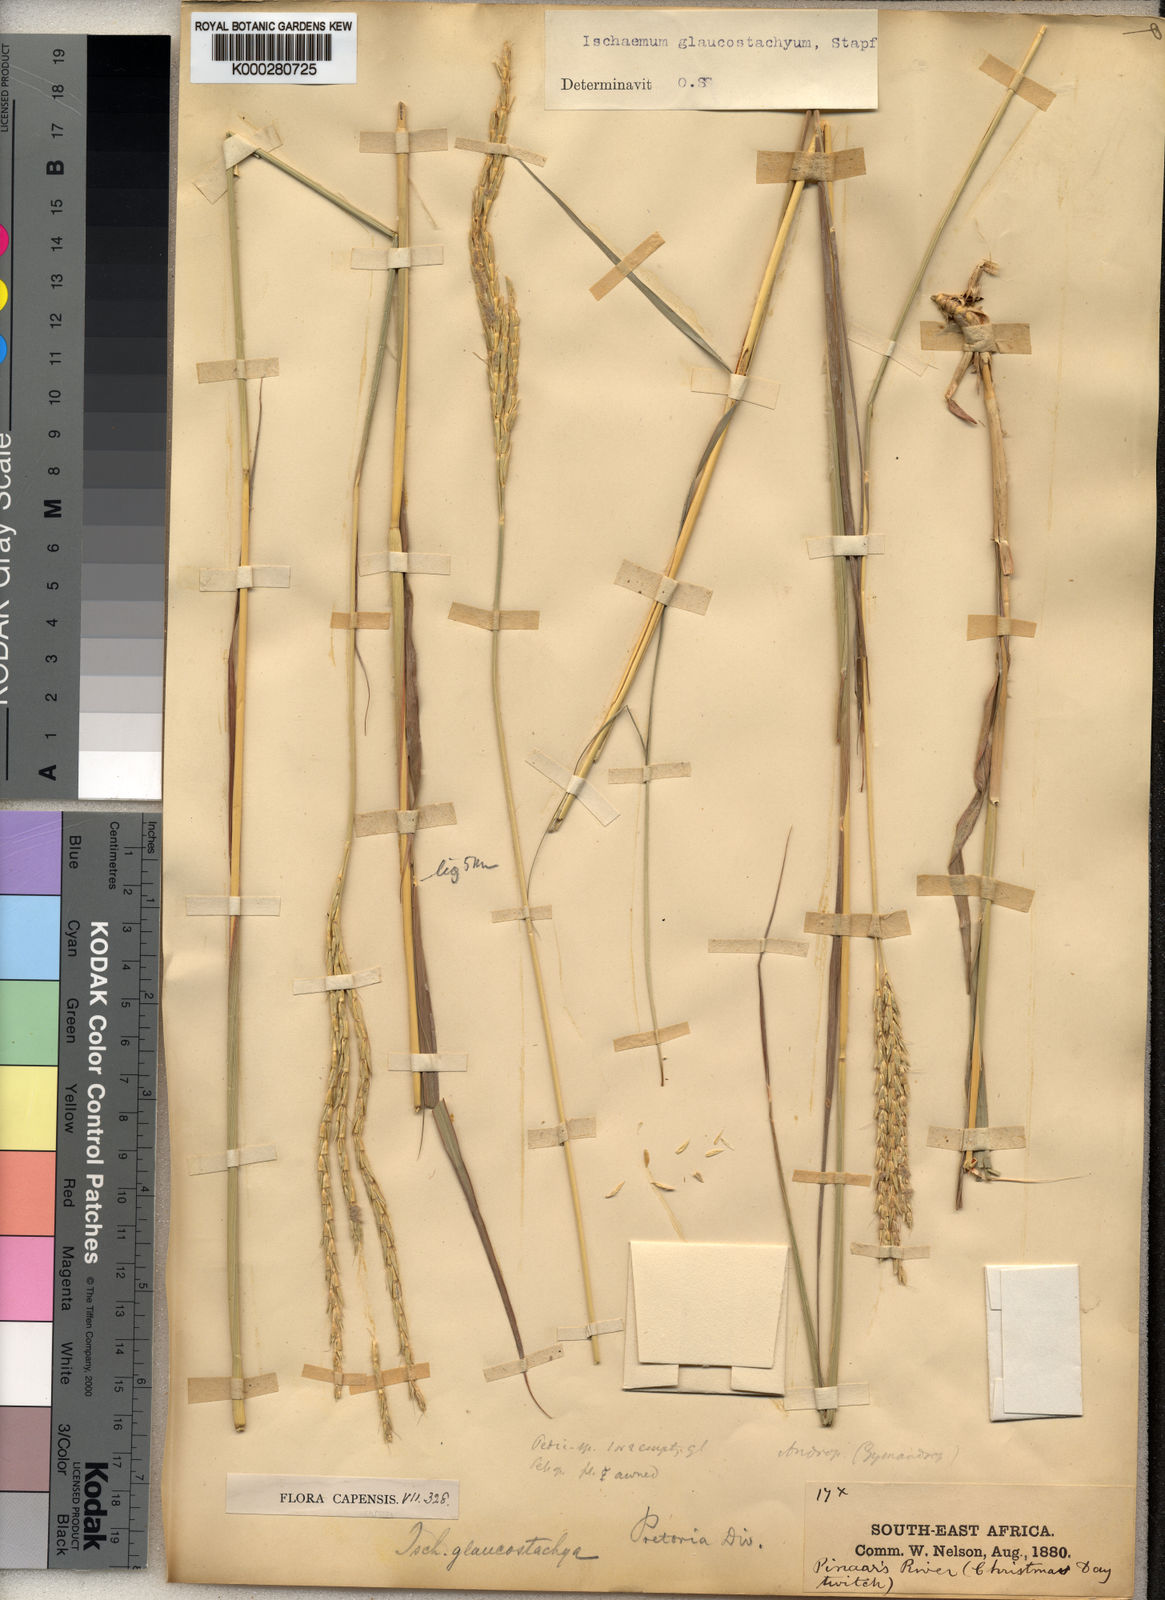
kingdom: Plantae
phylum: Tracheophyta
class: Liliopsida
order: Poales
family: Poaceae
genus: Ischaemum
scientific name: Ischaemum afrum
